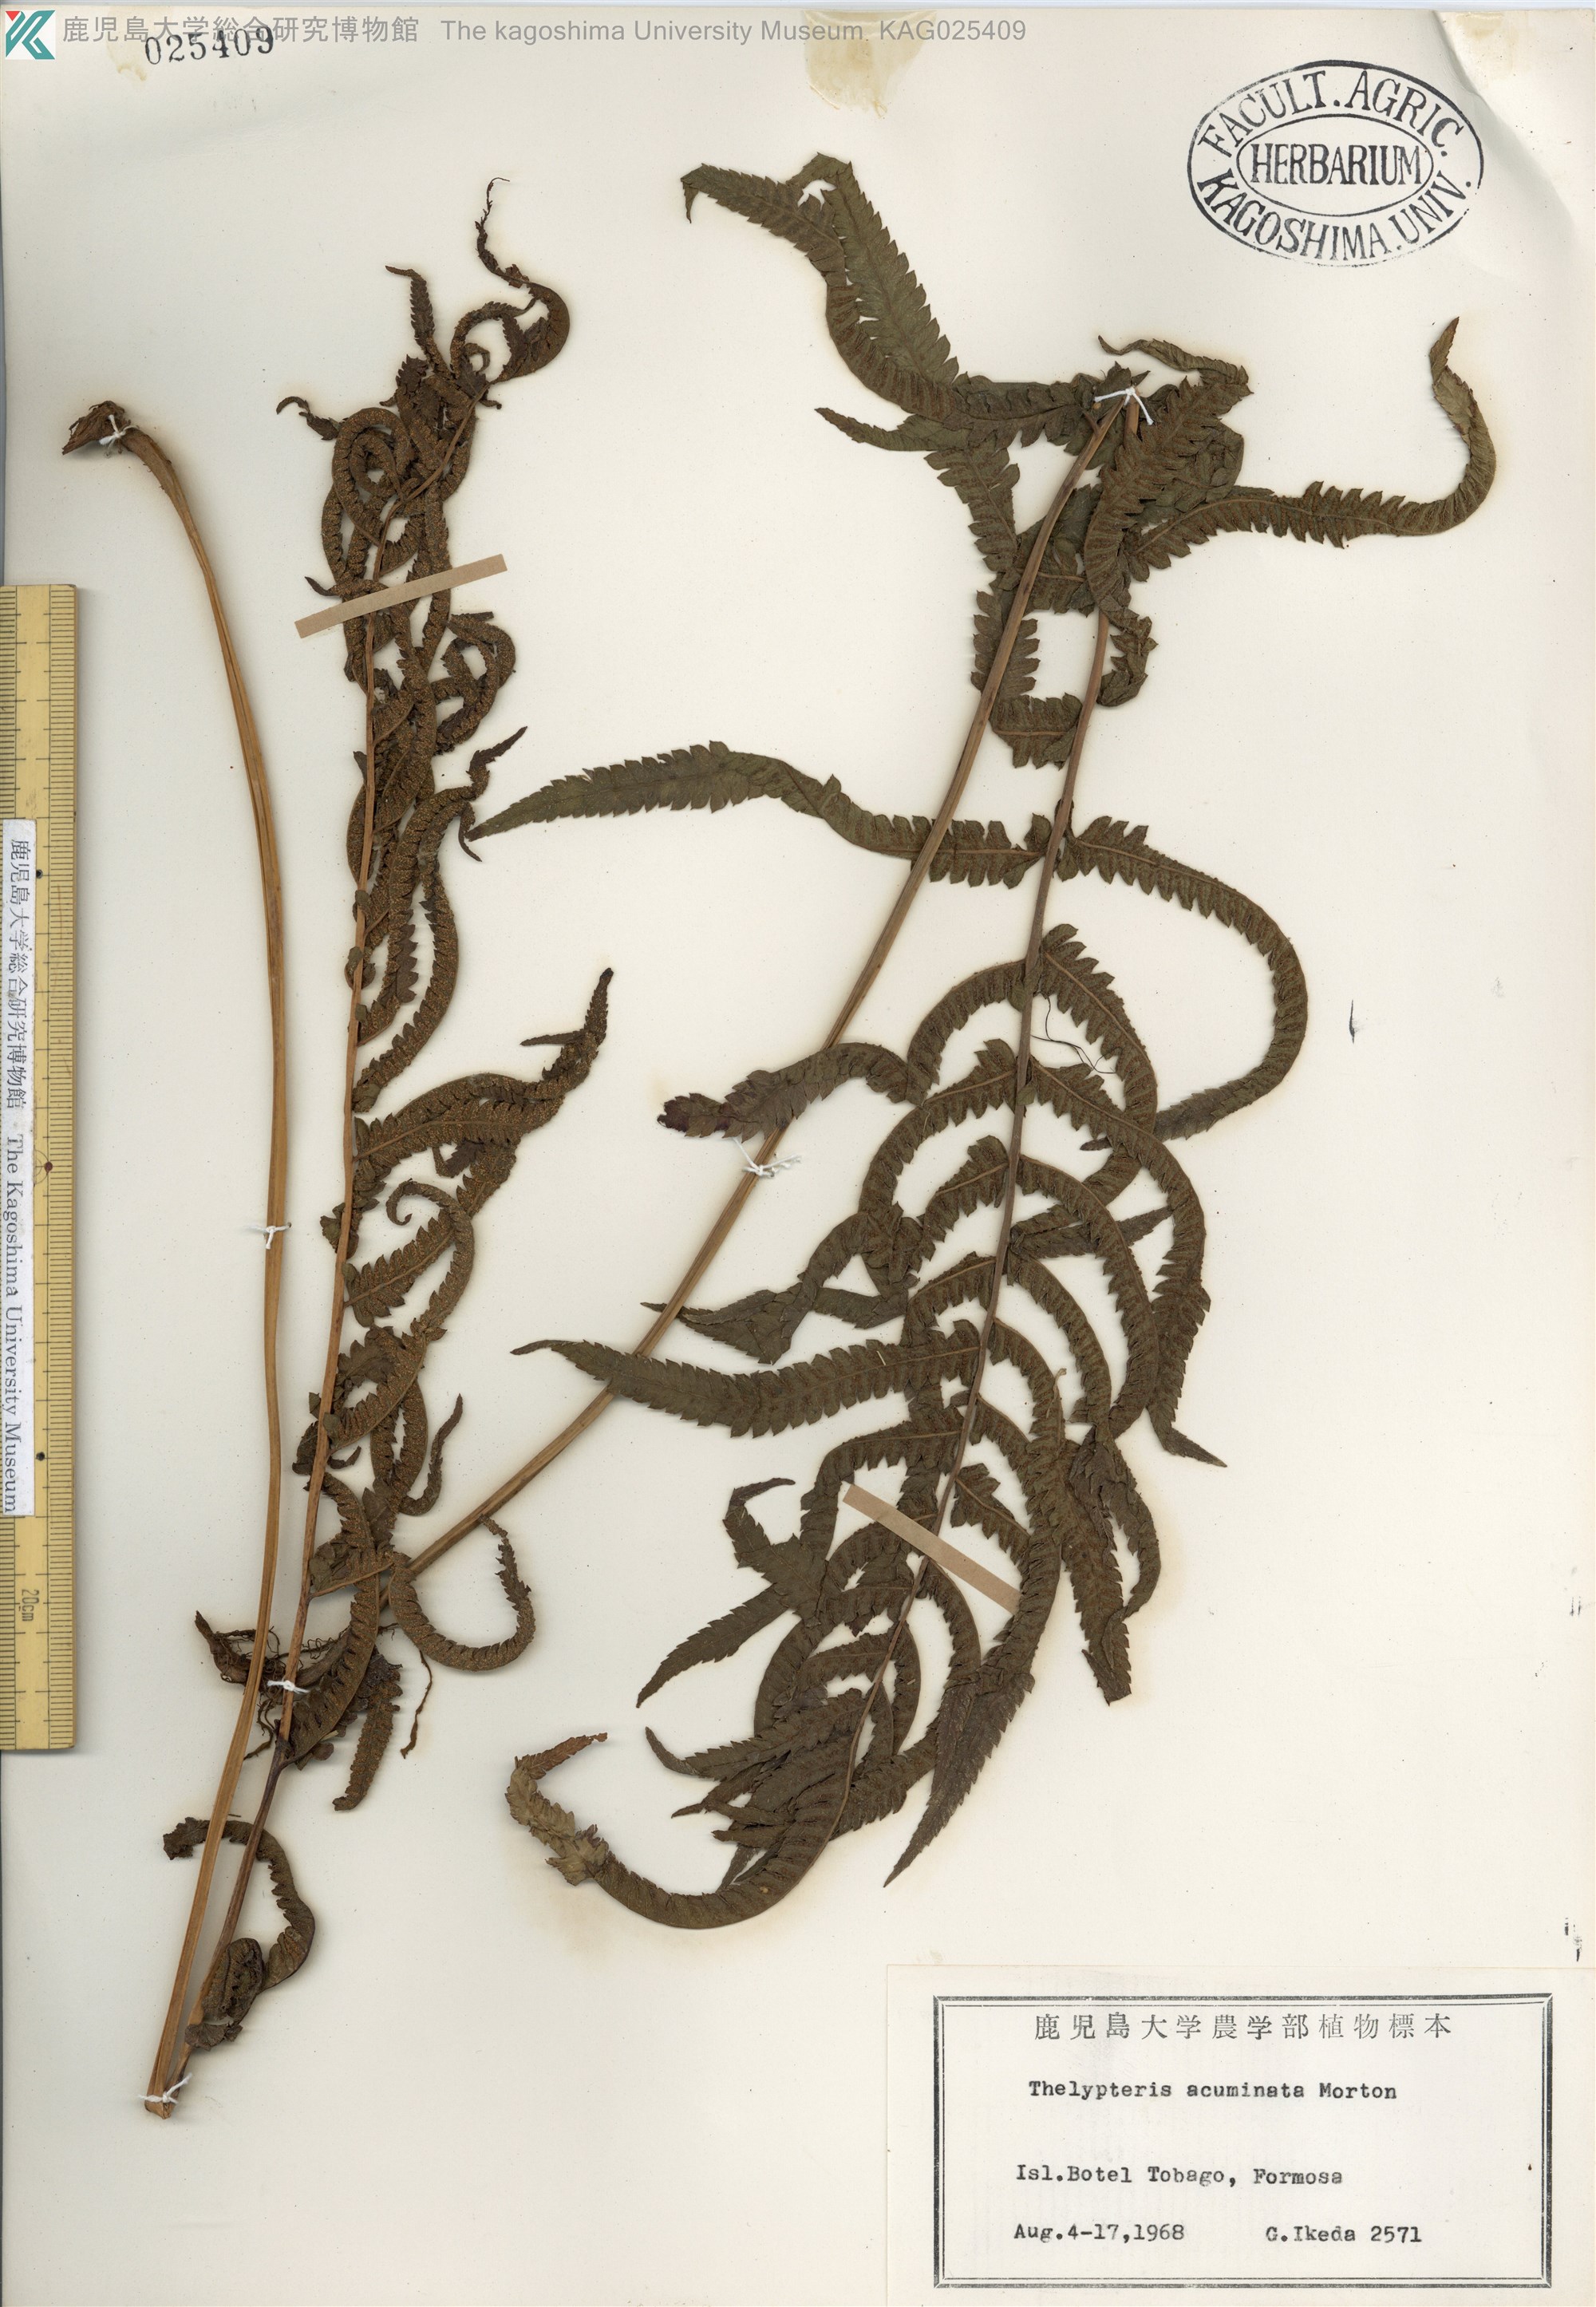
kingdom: Plantae
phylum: Tracheophyta
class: Polypodiopsida
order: Polypodiales
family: Thelypteridaceae
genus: Christella
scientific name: Christella acuminata
